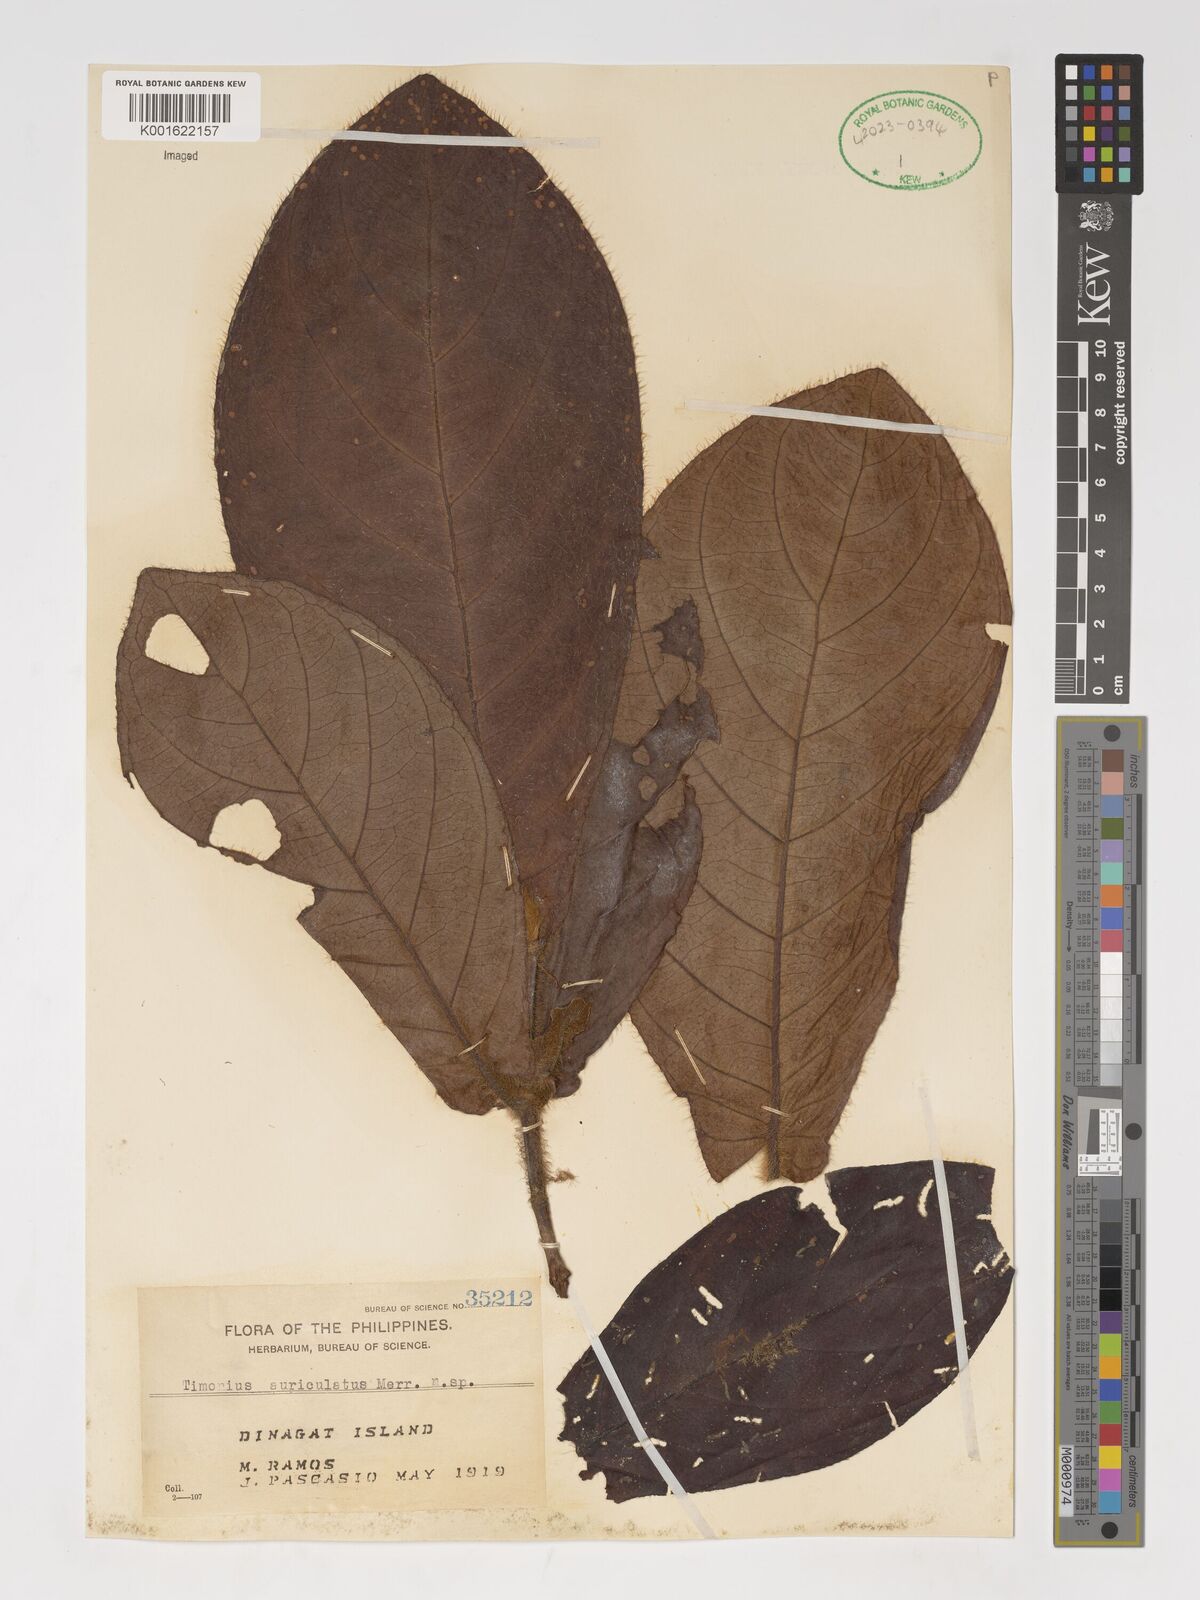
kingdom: Plantae
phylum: Tracheophyta
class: Magnoliopsida
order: Gentianales
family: Rubiaceae
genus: Timonius
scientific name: Timonius auriculatus
